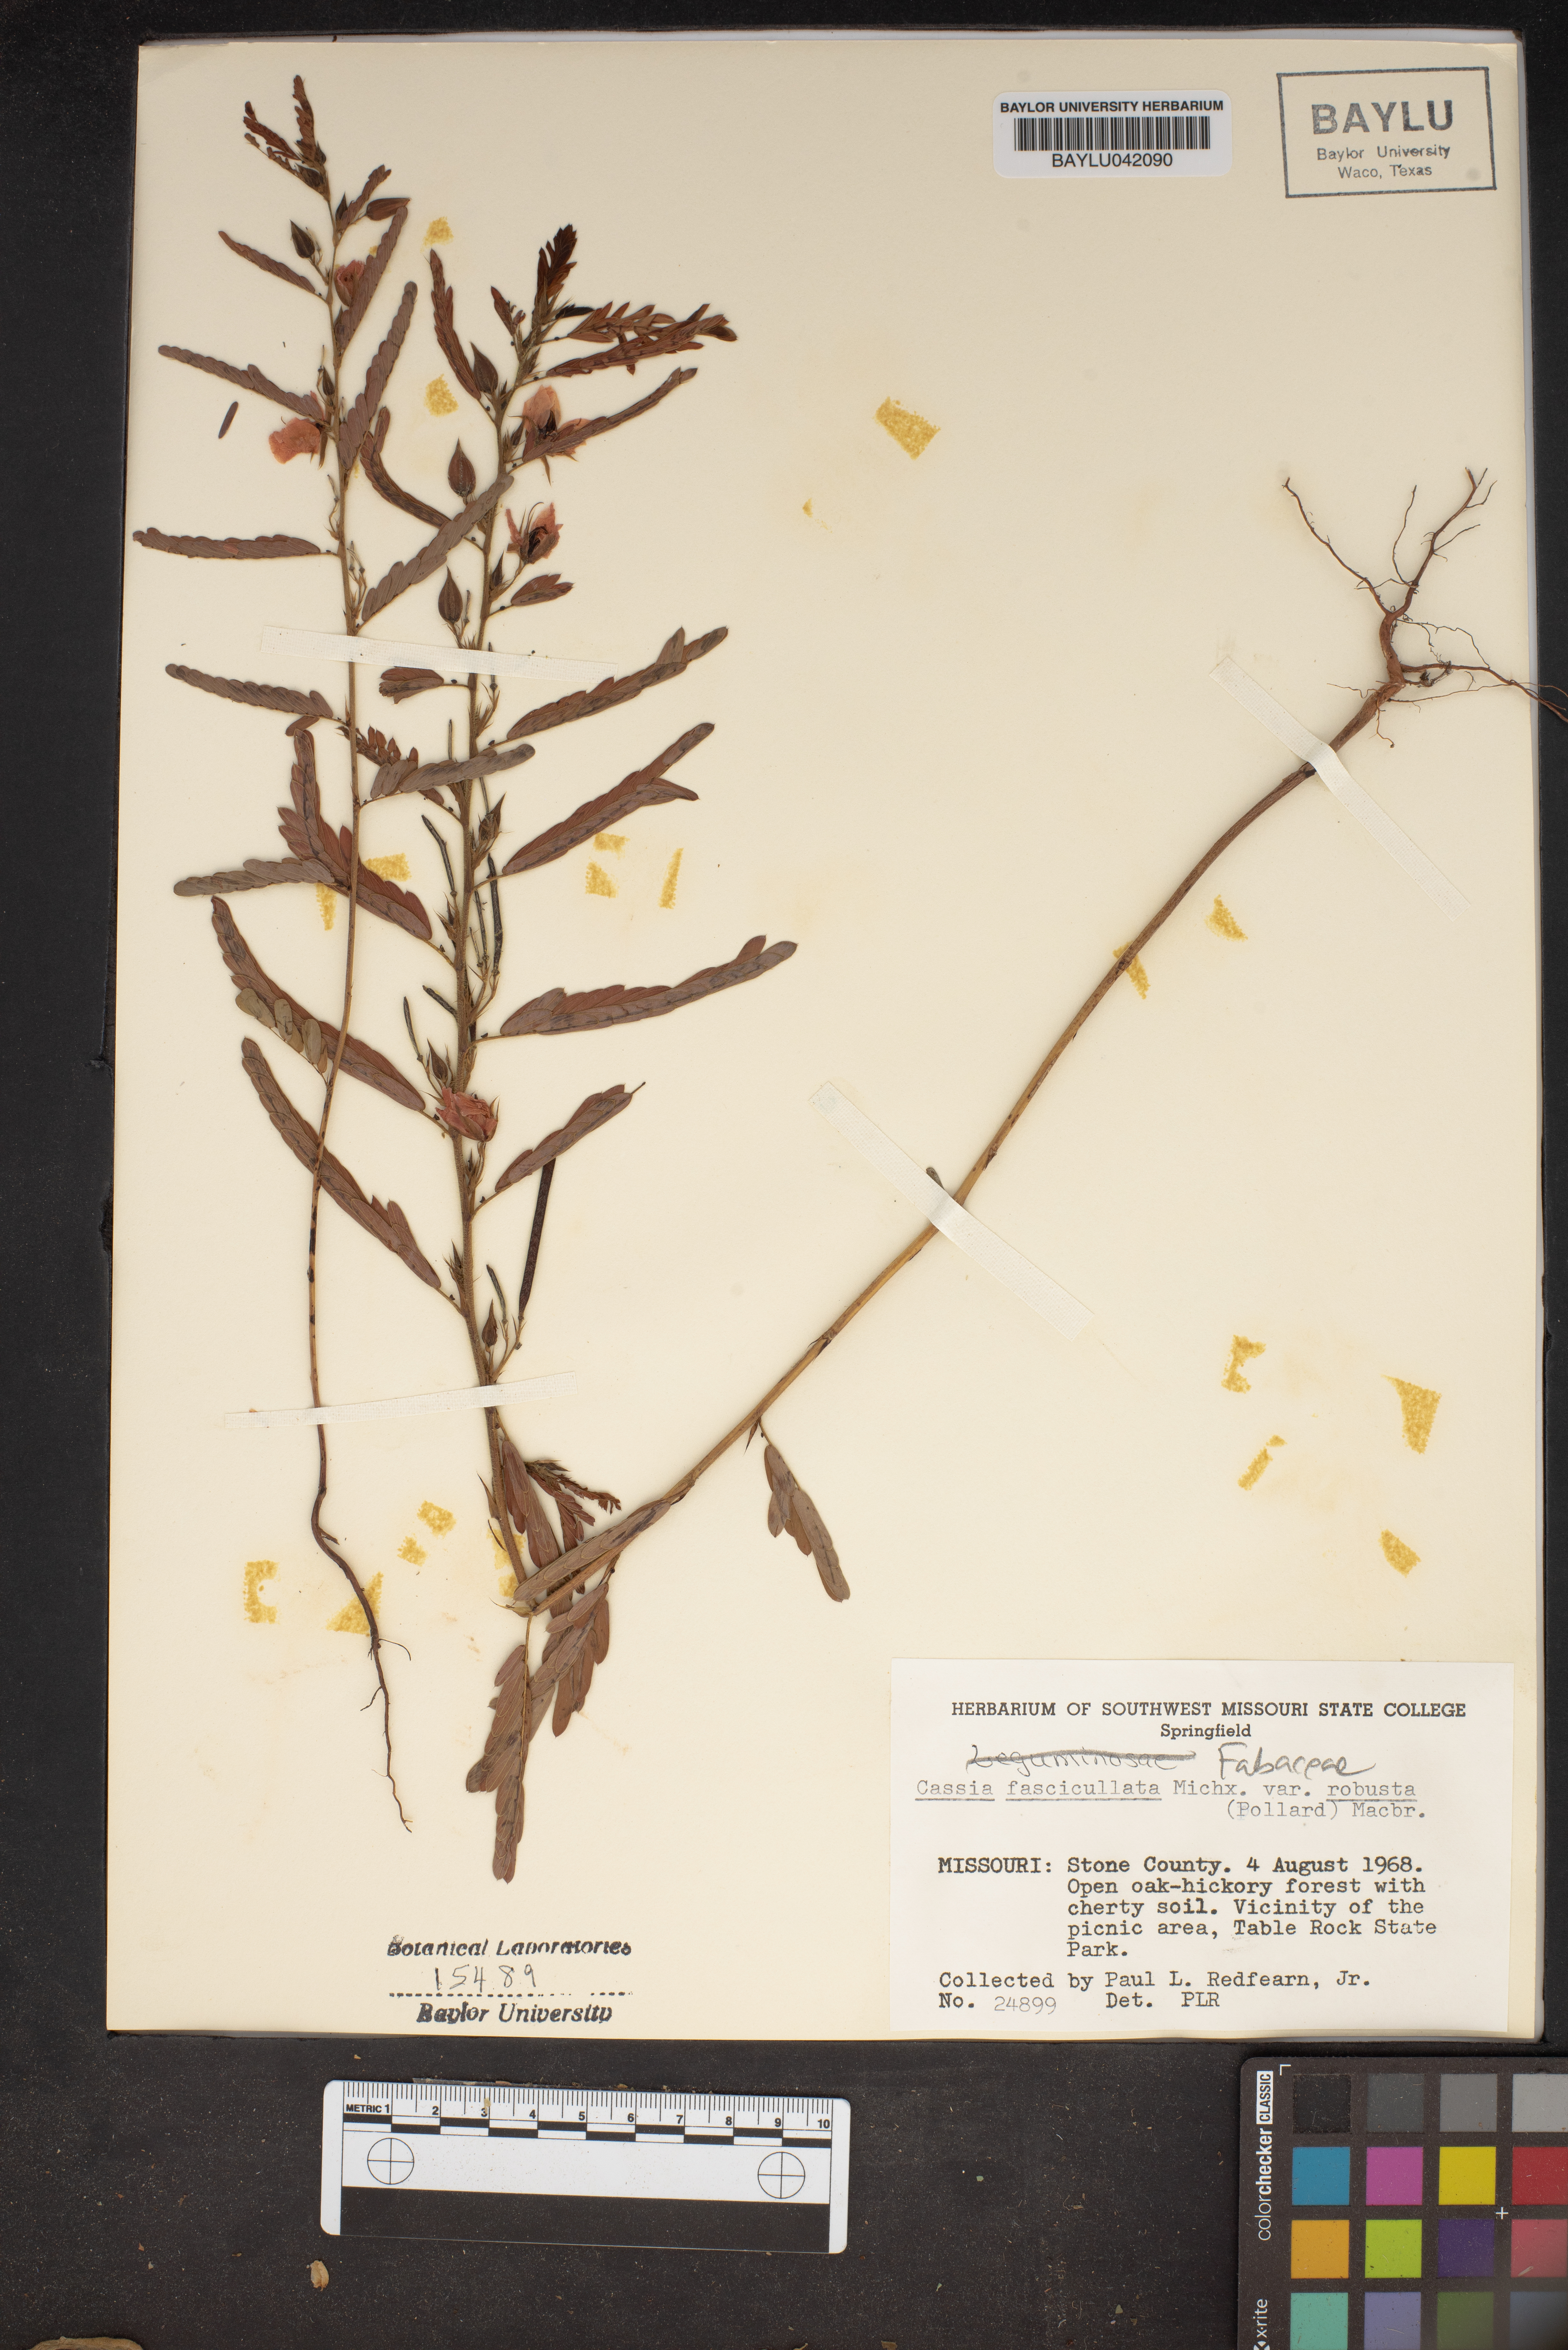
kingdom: Plantae
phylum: Tracheophyta
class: Magnoliopsida
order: Fabales
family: Fabaceae
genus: Chamaecrista
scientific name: Chamaecrista fasciculata
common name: Golden cassia
